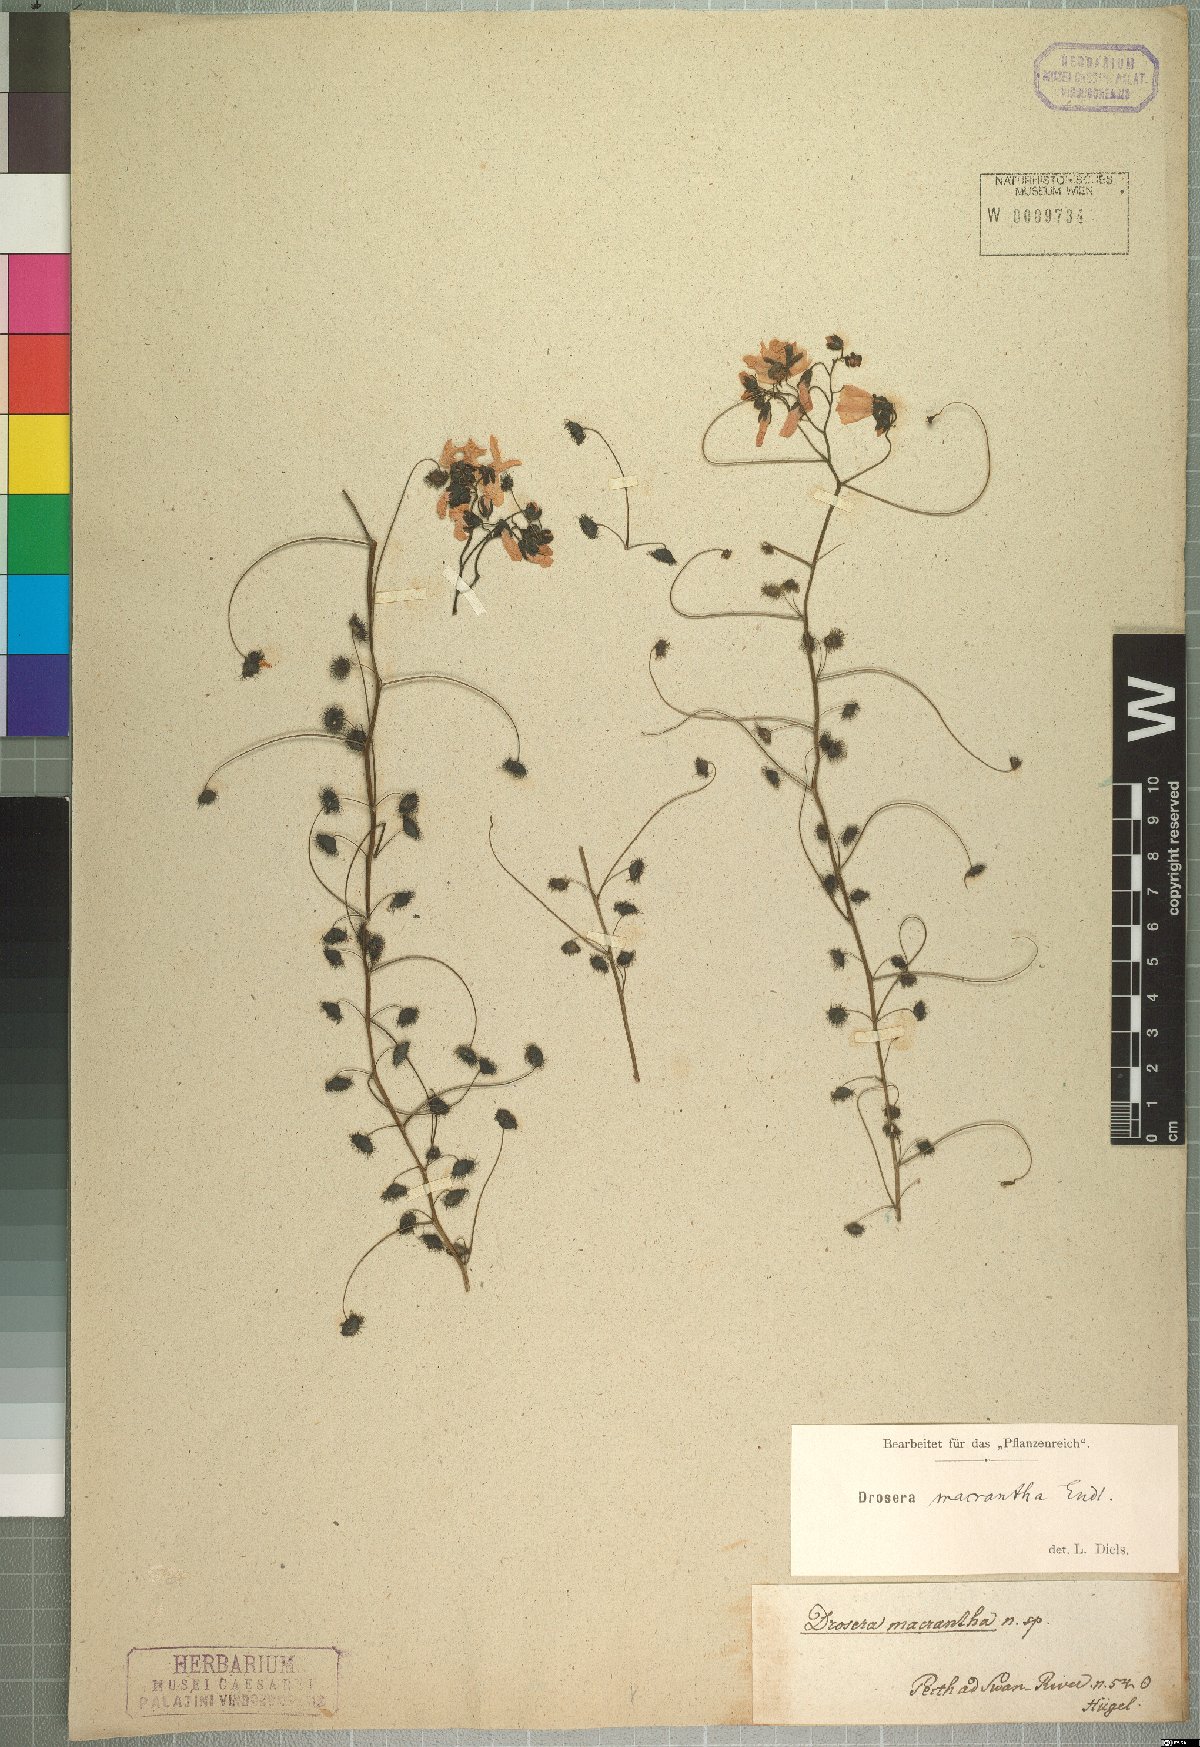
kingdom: Plantae
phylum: Tracheophyta
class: Magnoliopsida
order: Caryophyllales
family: Droseraceae
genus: Drosera
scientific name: Drosera macrantha
